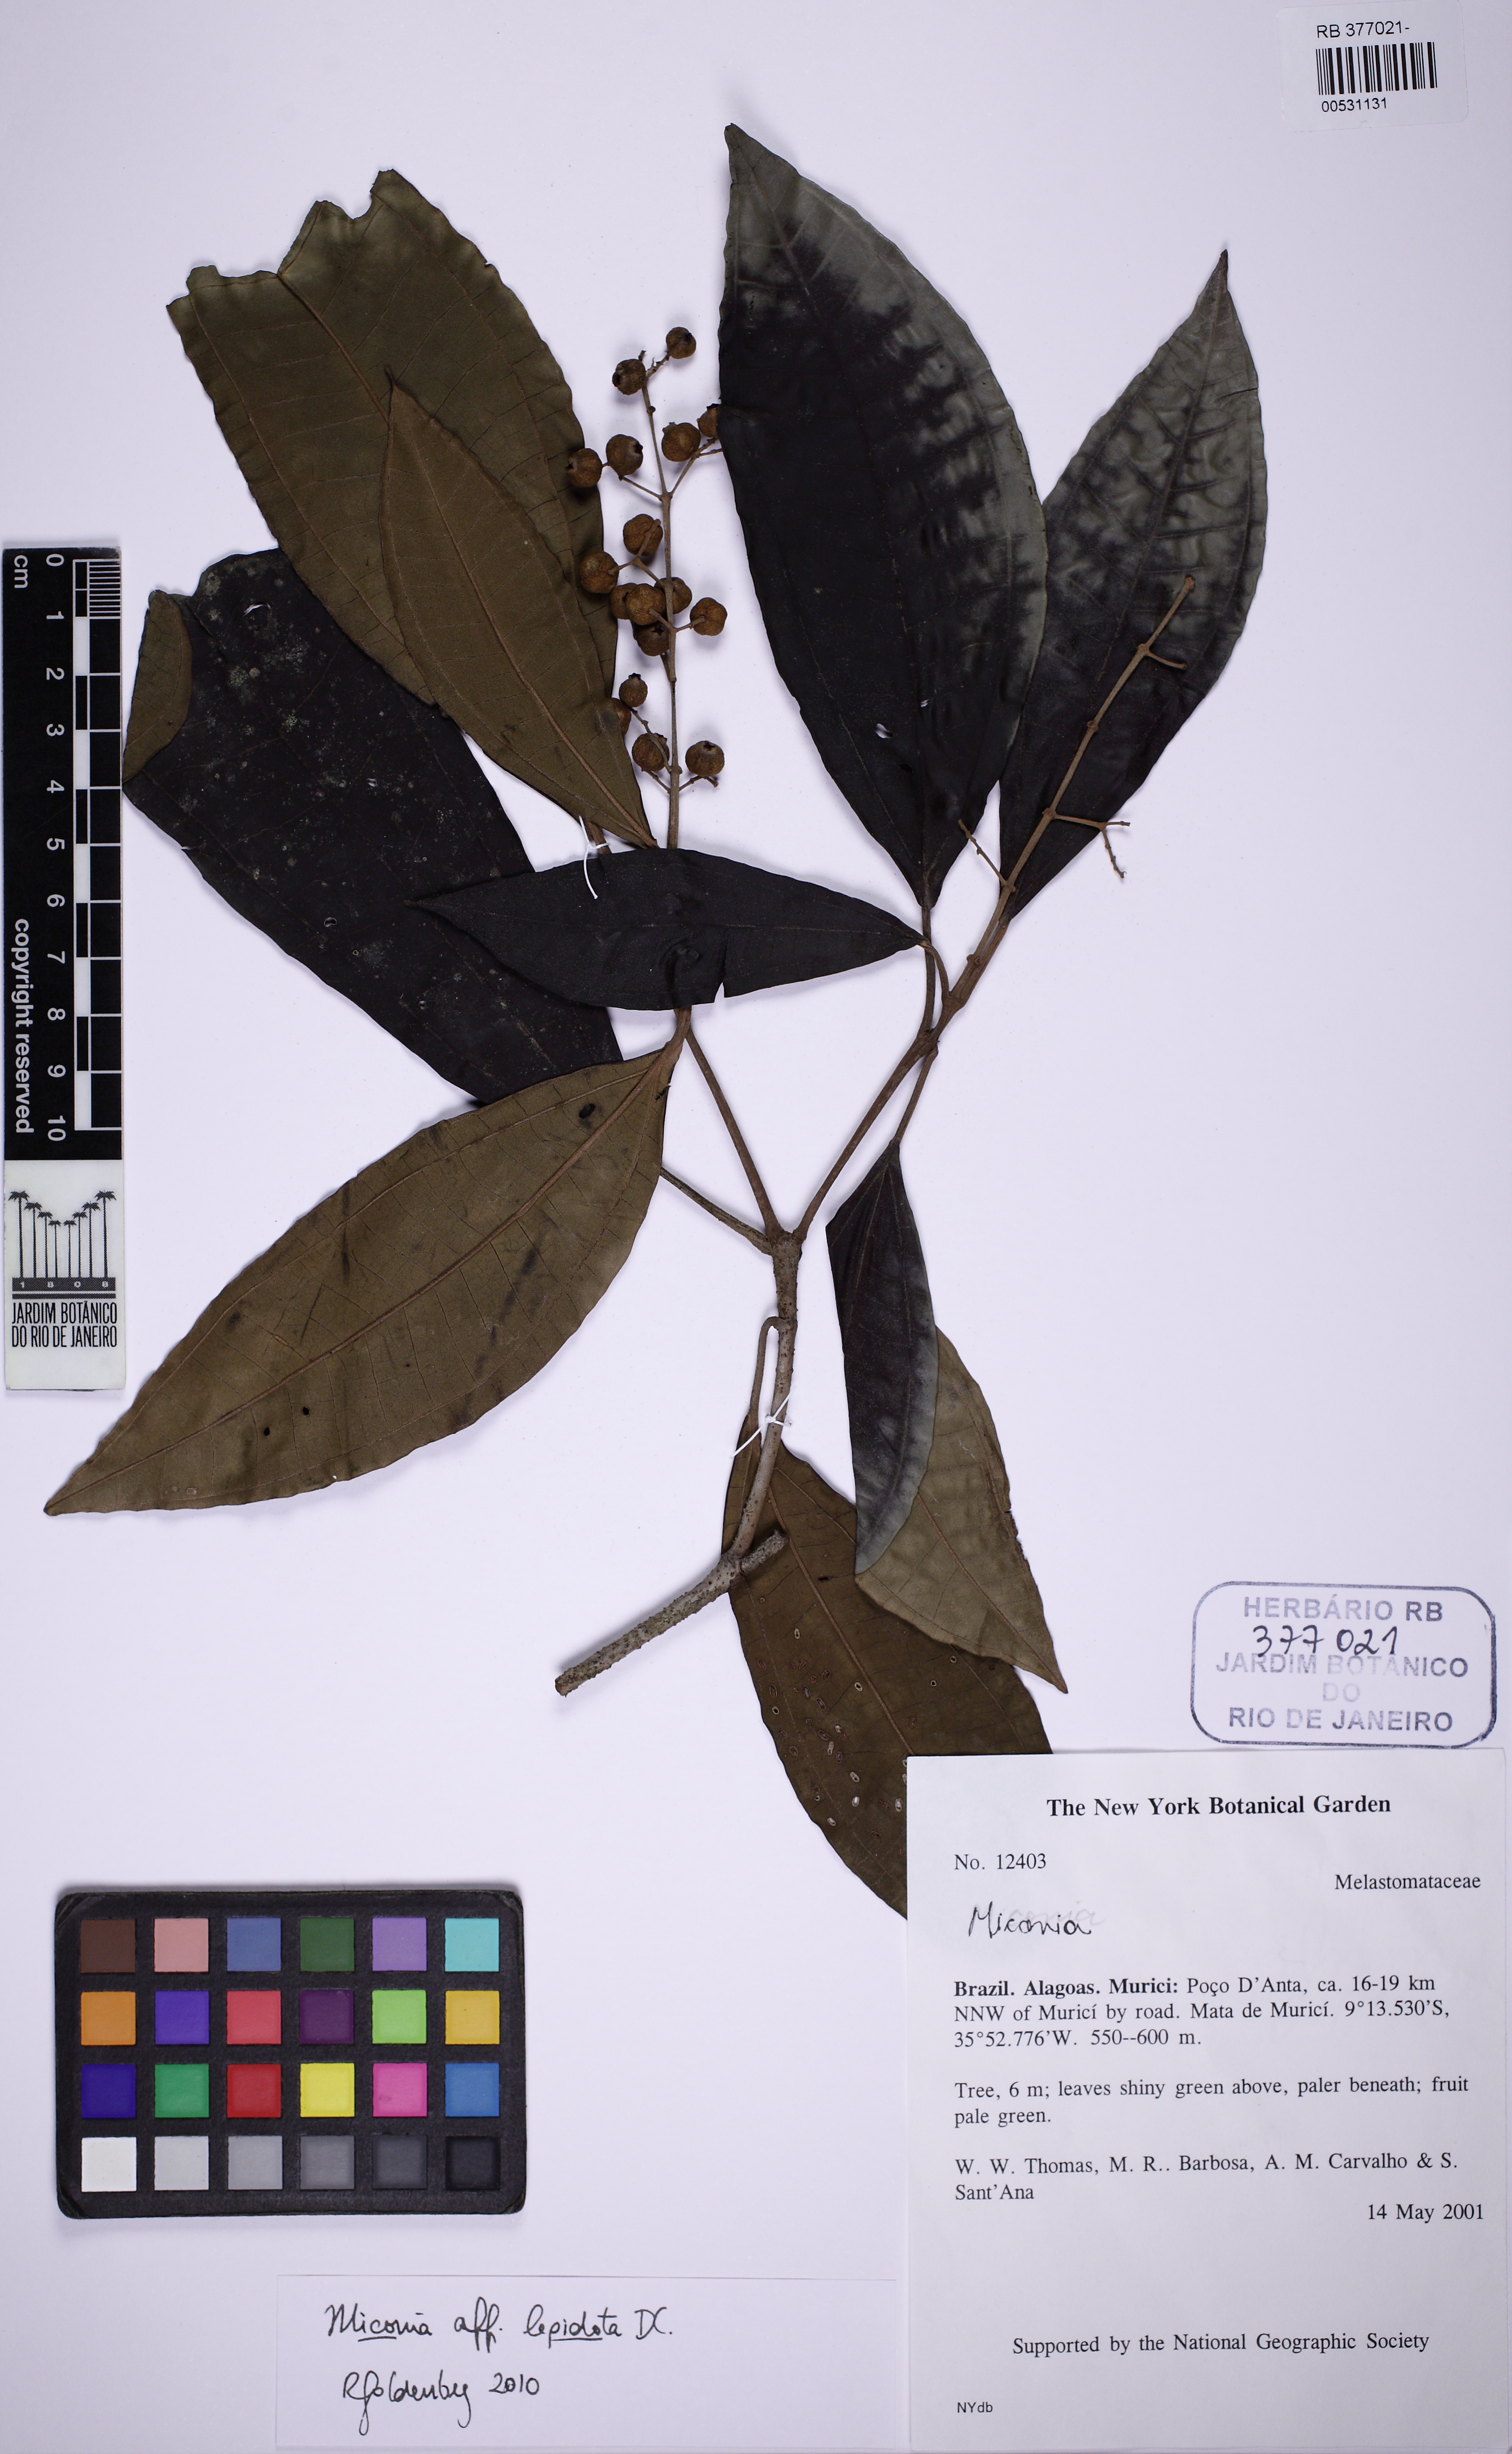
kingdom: Plantae
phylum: Tracheophyta
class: Magnoliopsida
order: Myrtales
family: Melastomataceae
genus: Miconia
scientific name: Miconia caiuia
